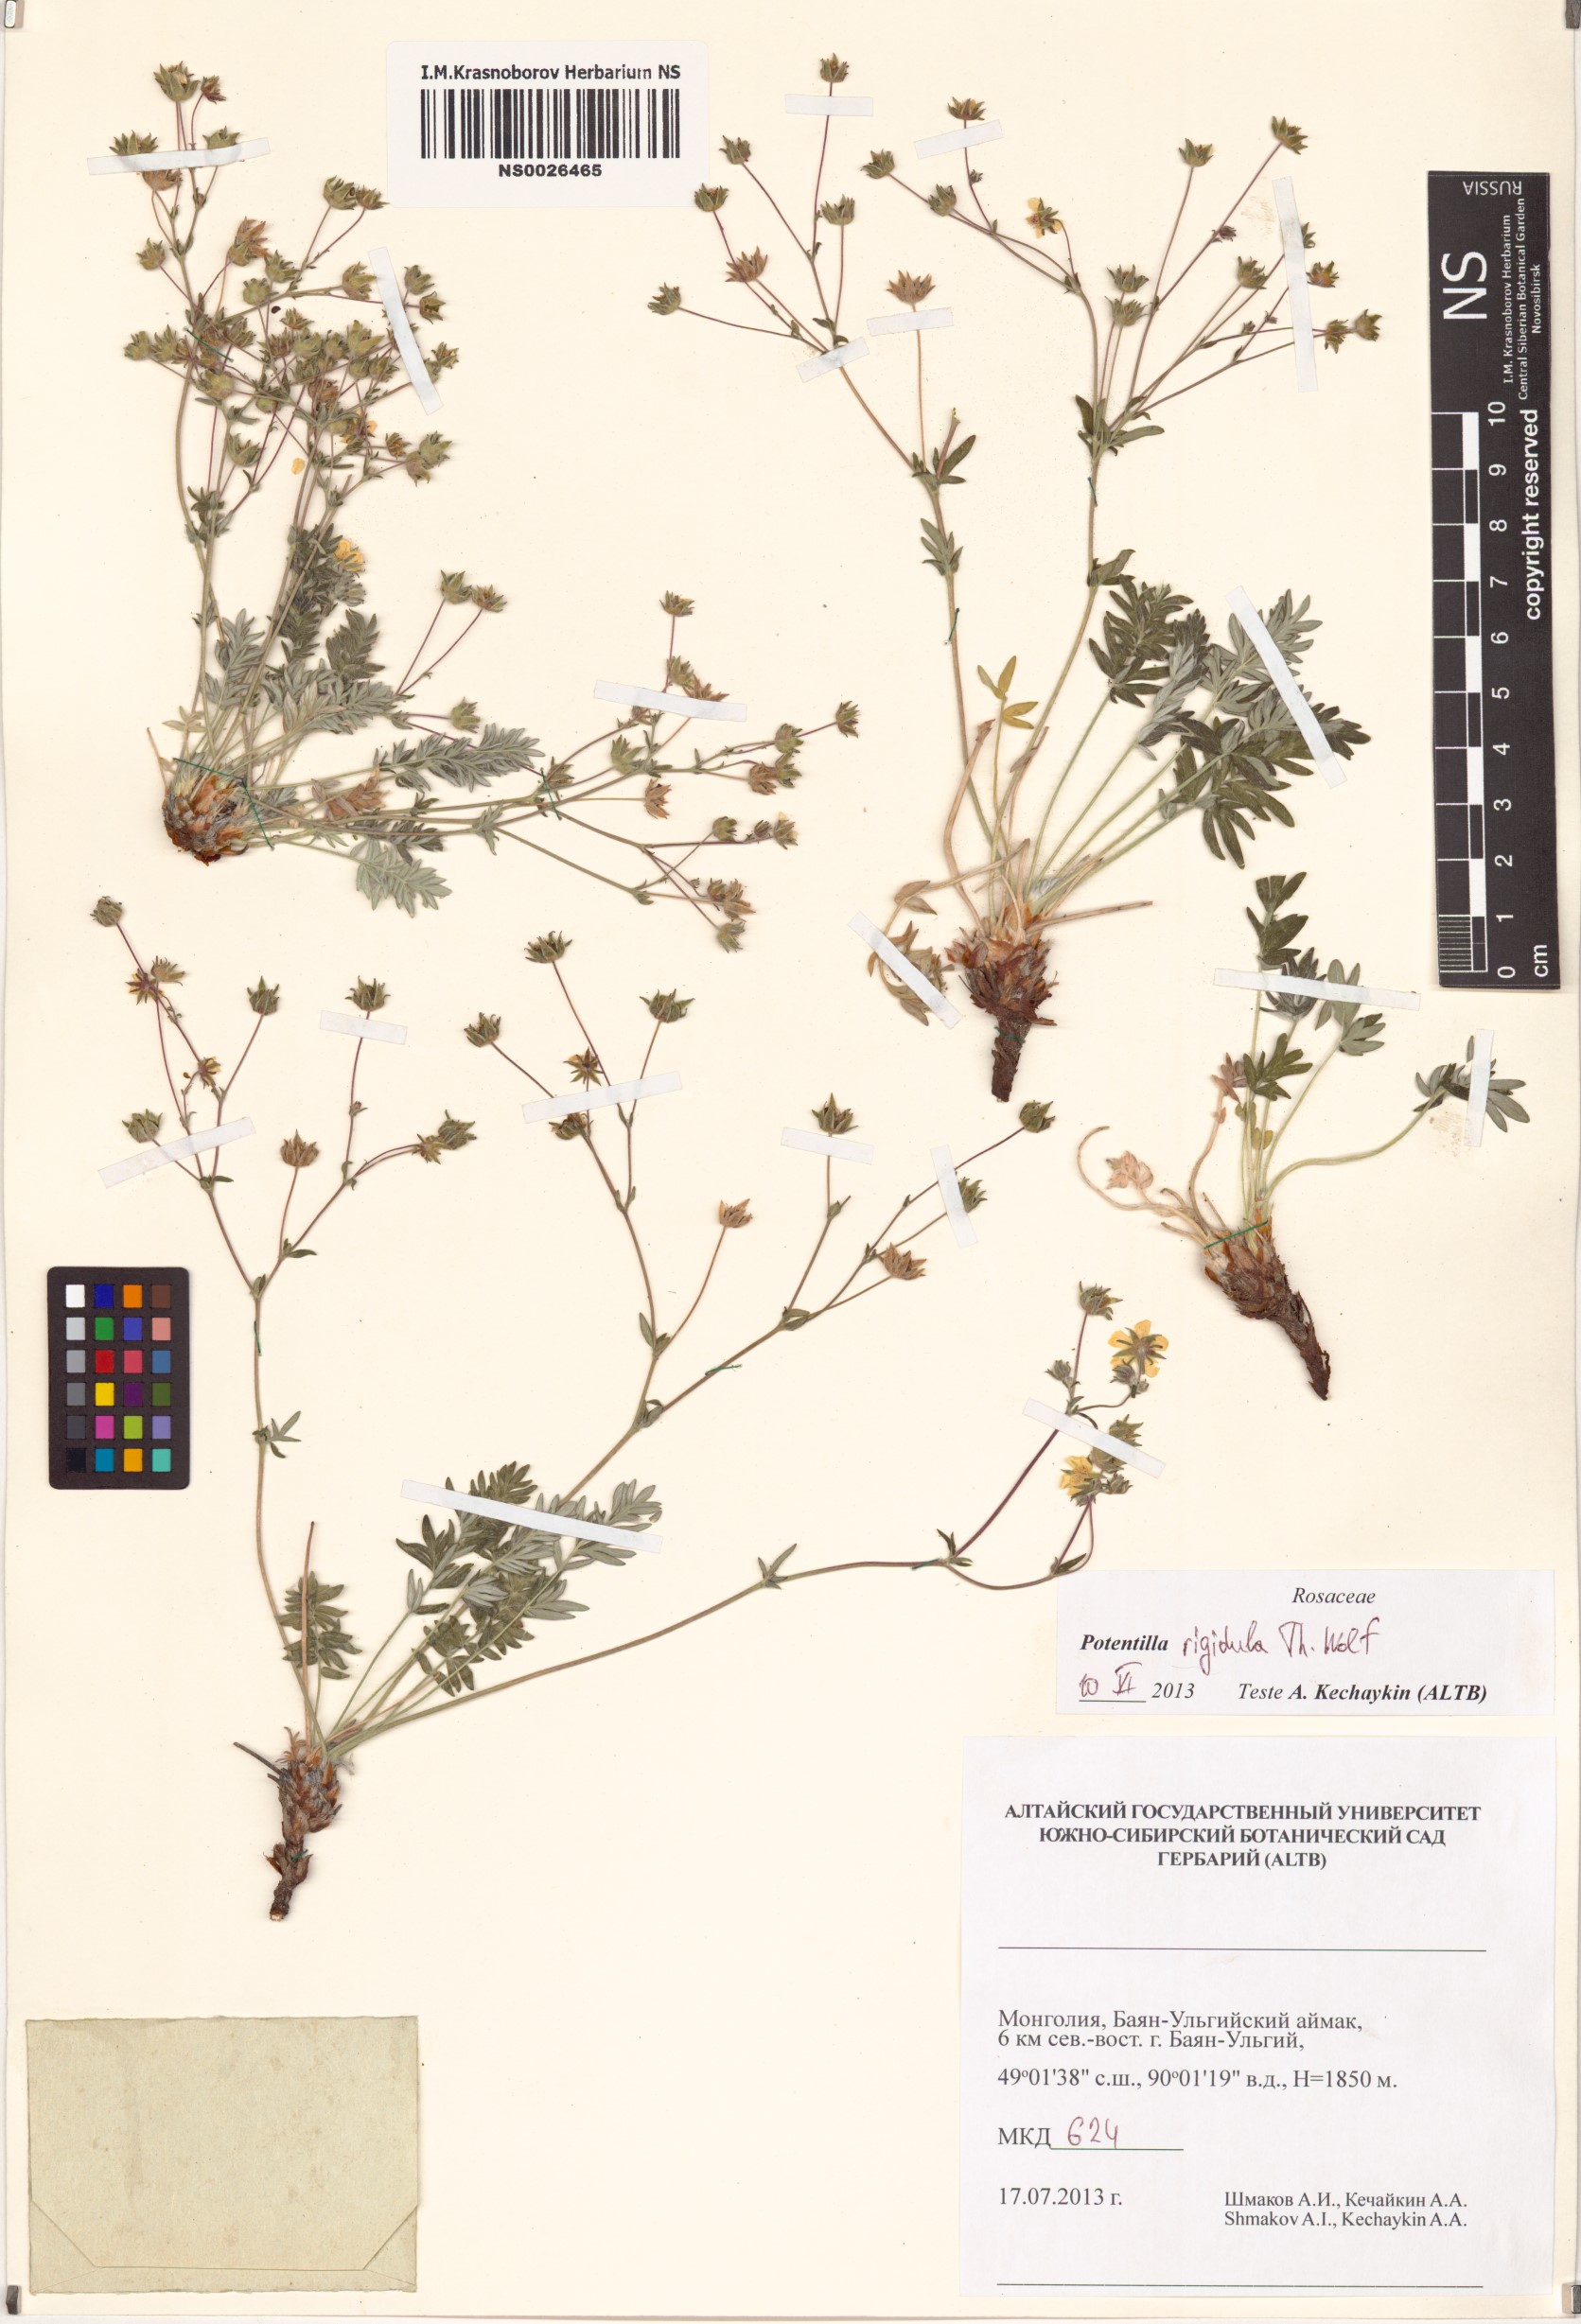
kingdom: Plantae
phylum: Tracheophyta
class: Magnoliopsida
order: Rosales
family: Rosaceae
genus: Potentilla
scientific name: Potentilla rigidula
